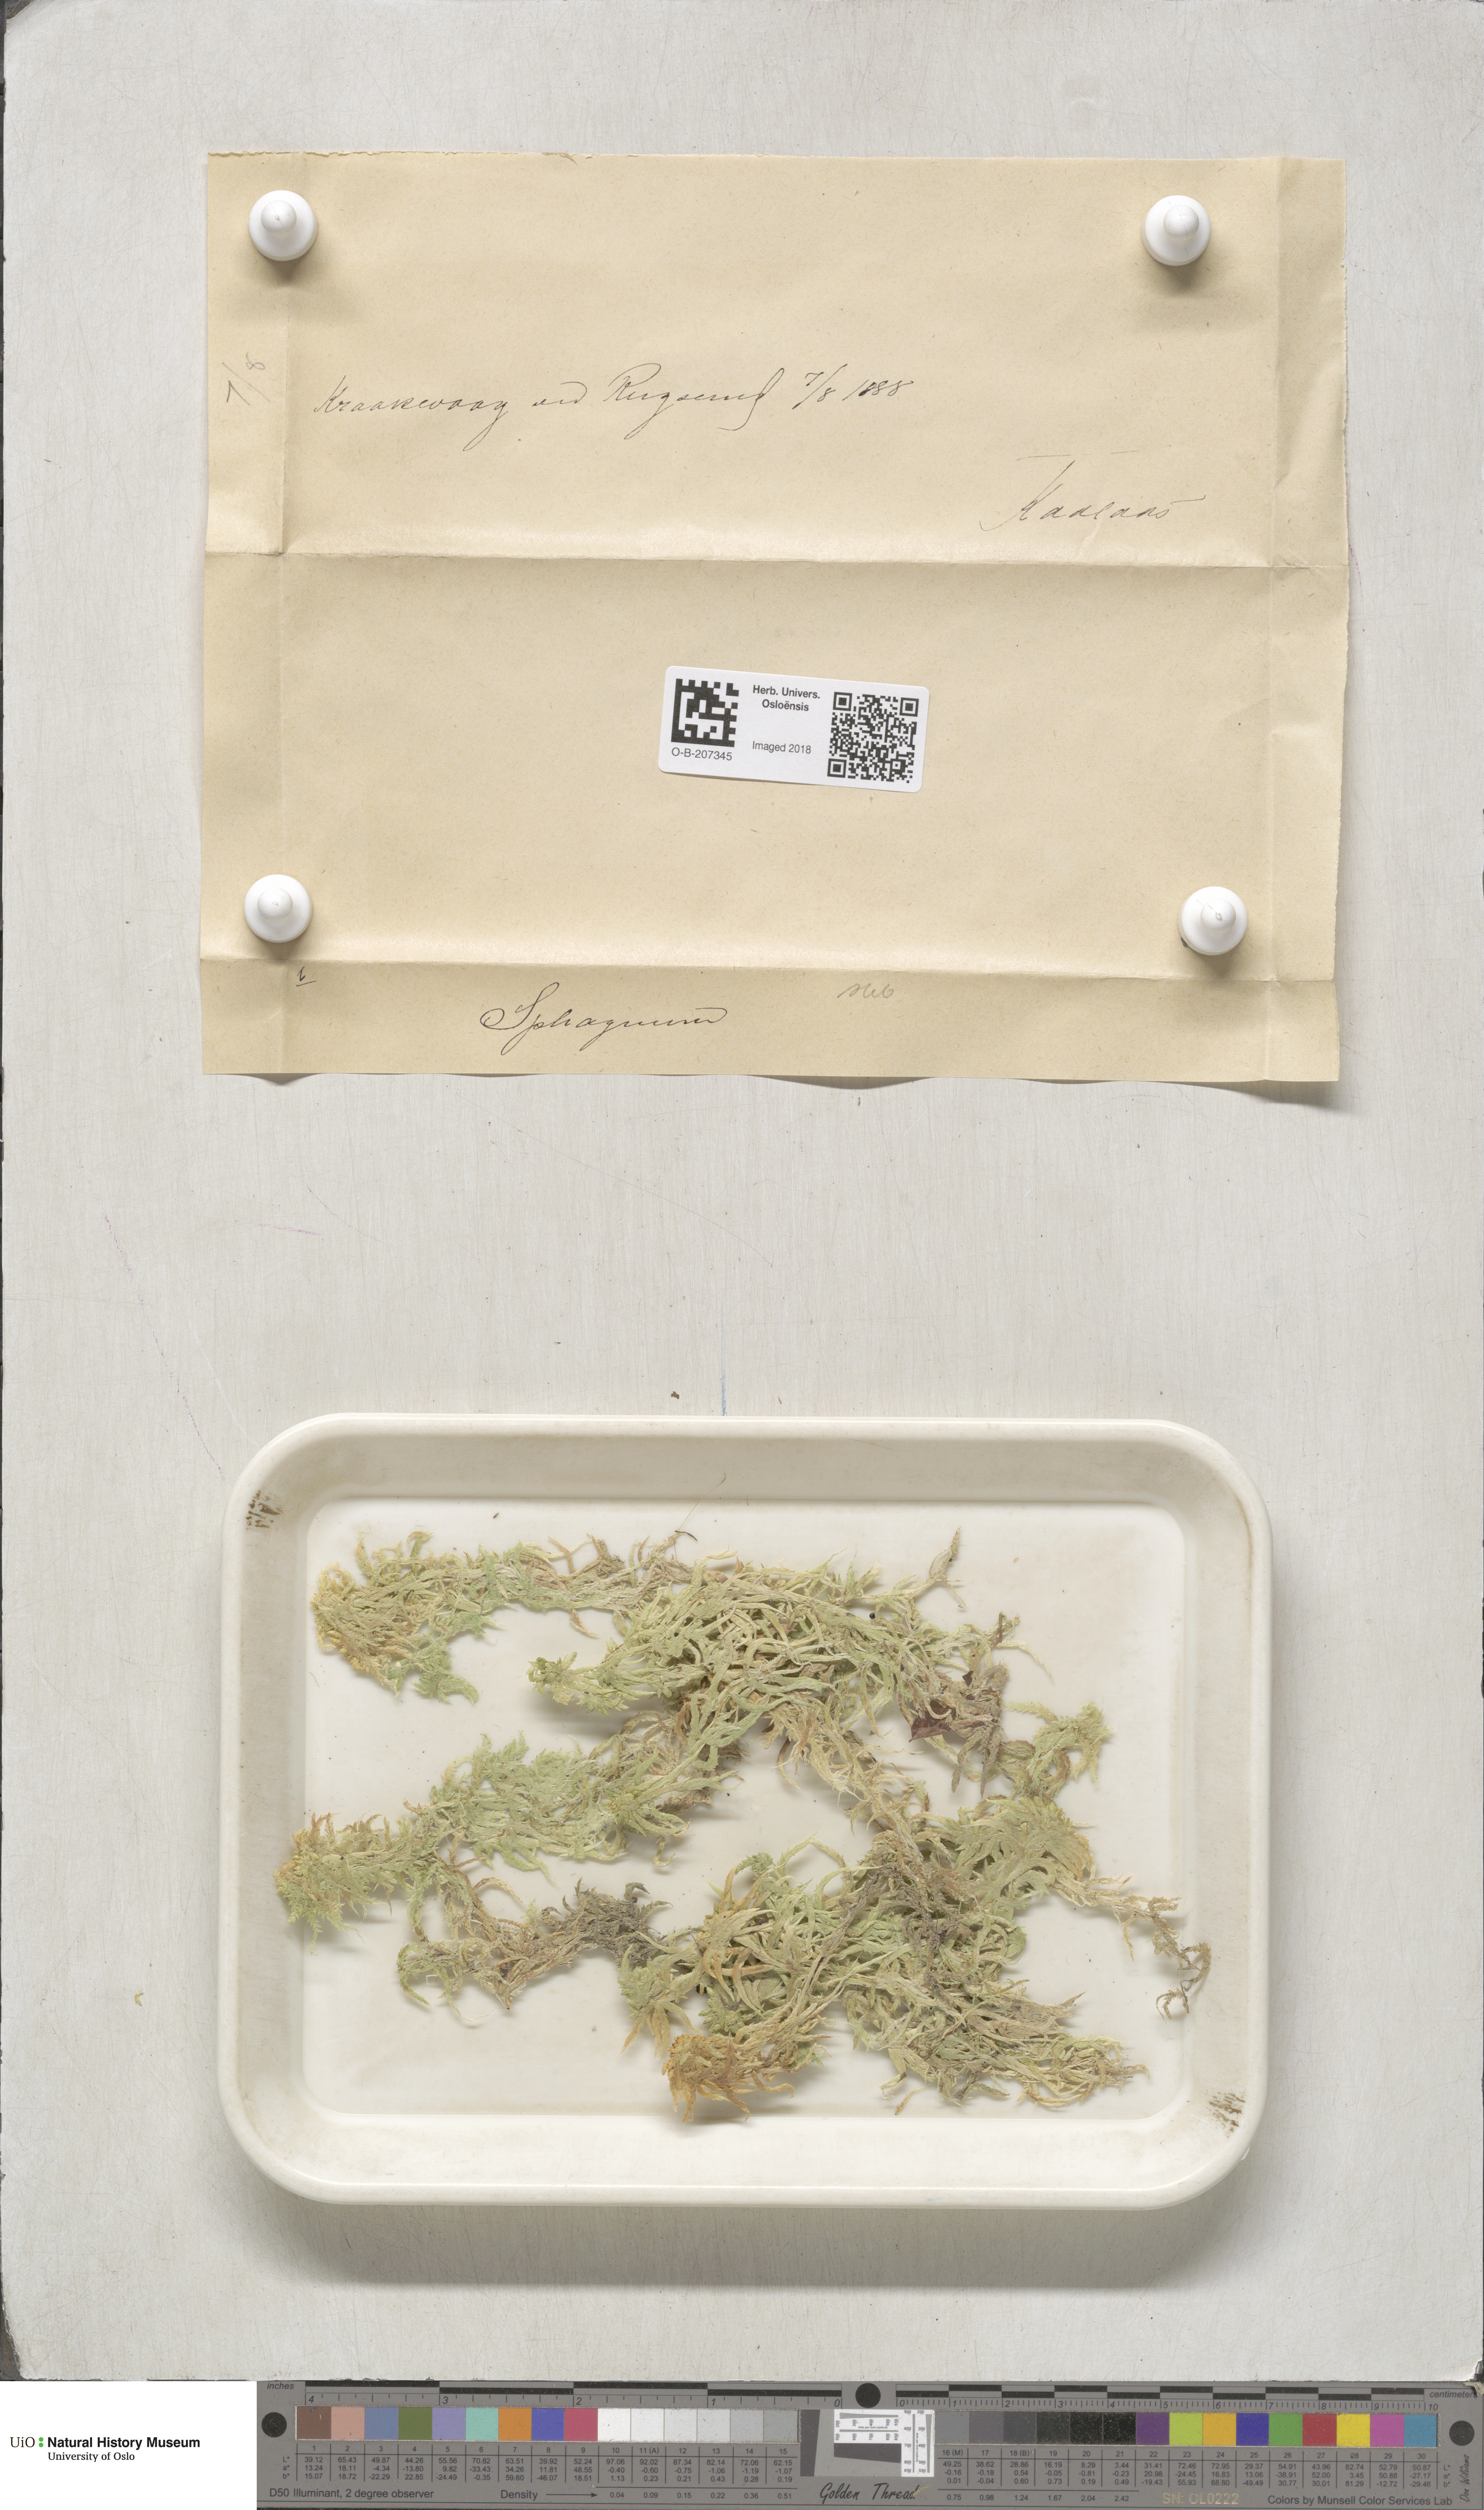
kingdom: Plantae
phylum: Bryophyta
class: Sphagnopsida
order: Sphagnales
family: Sphagnaceae
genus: Sphagnum
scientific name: Sphagnum subsecundum
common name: Orange peat moss
